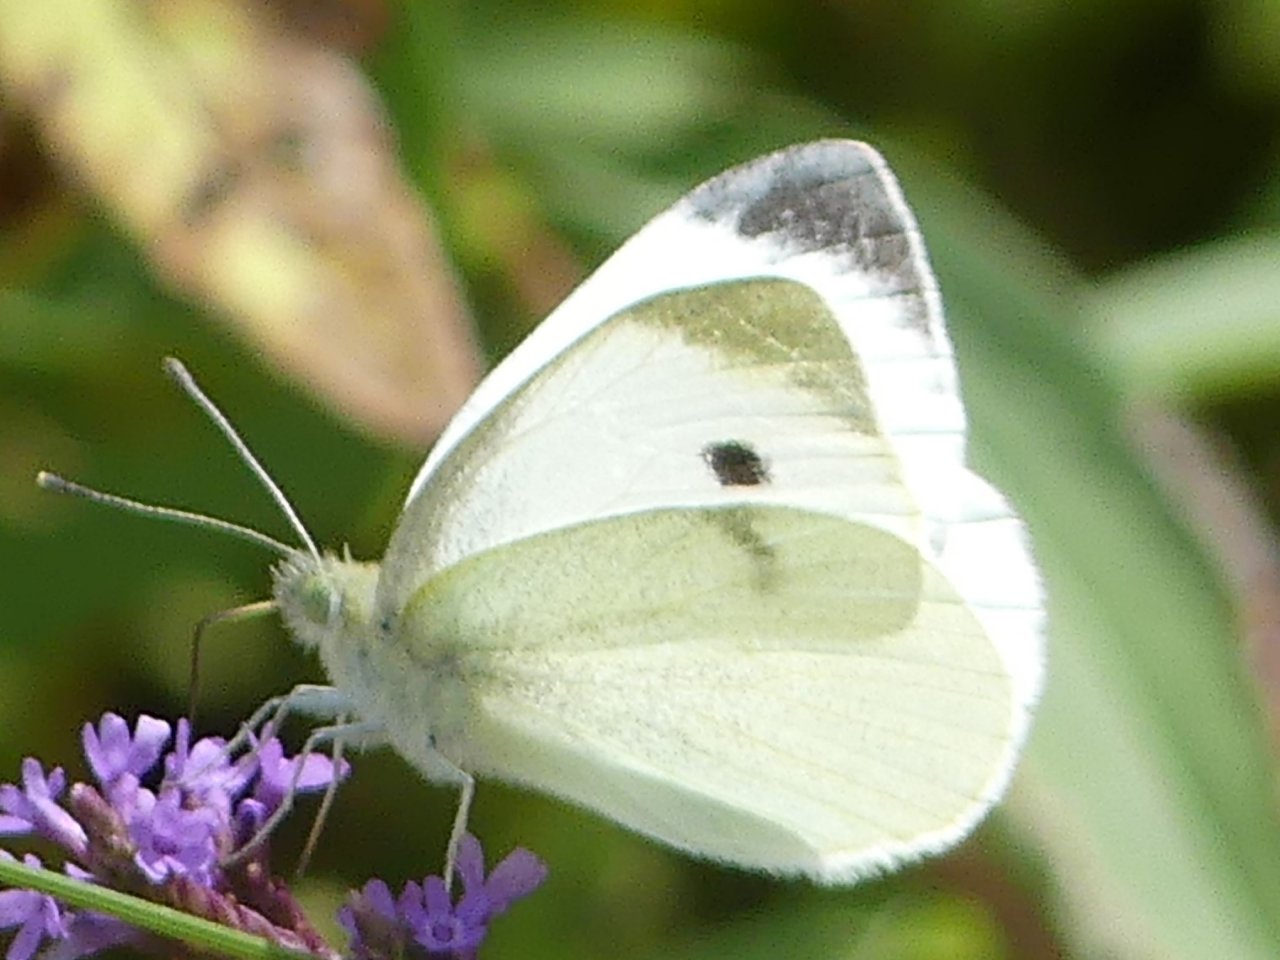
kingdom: Animalia
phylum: Arthropoda
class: Insecta
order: Lepidoptera
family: Pieridae
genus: Pieris
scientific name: Pieris rapae
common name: Cabbage White
